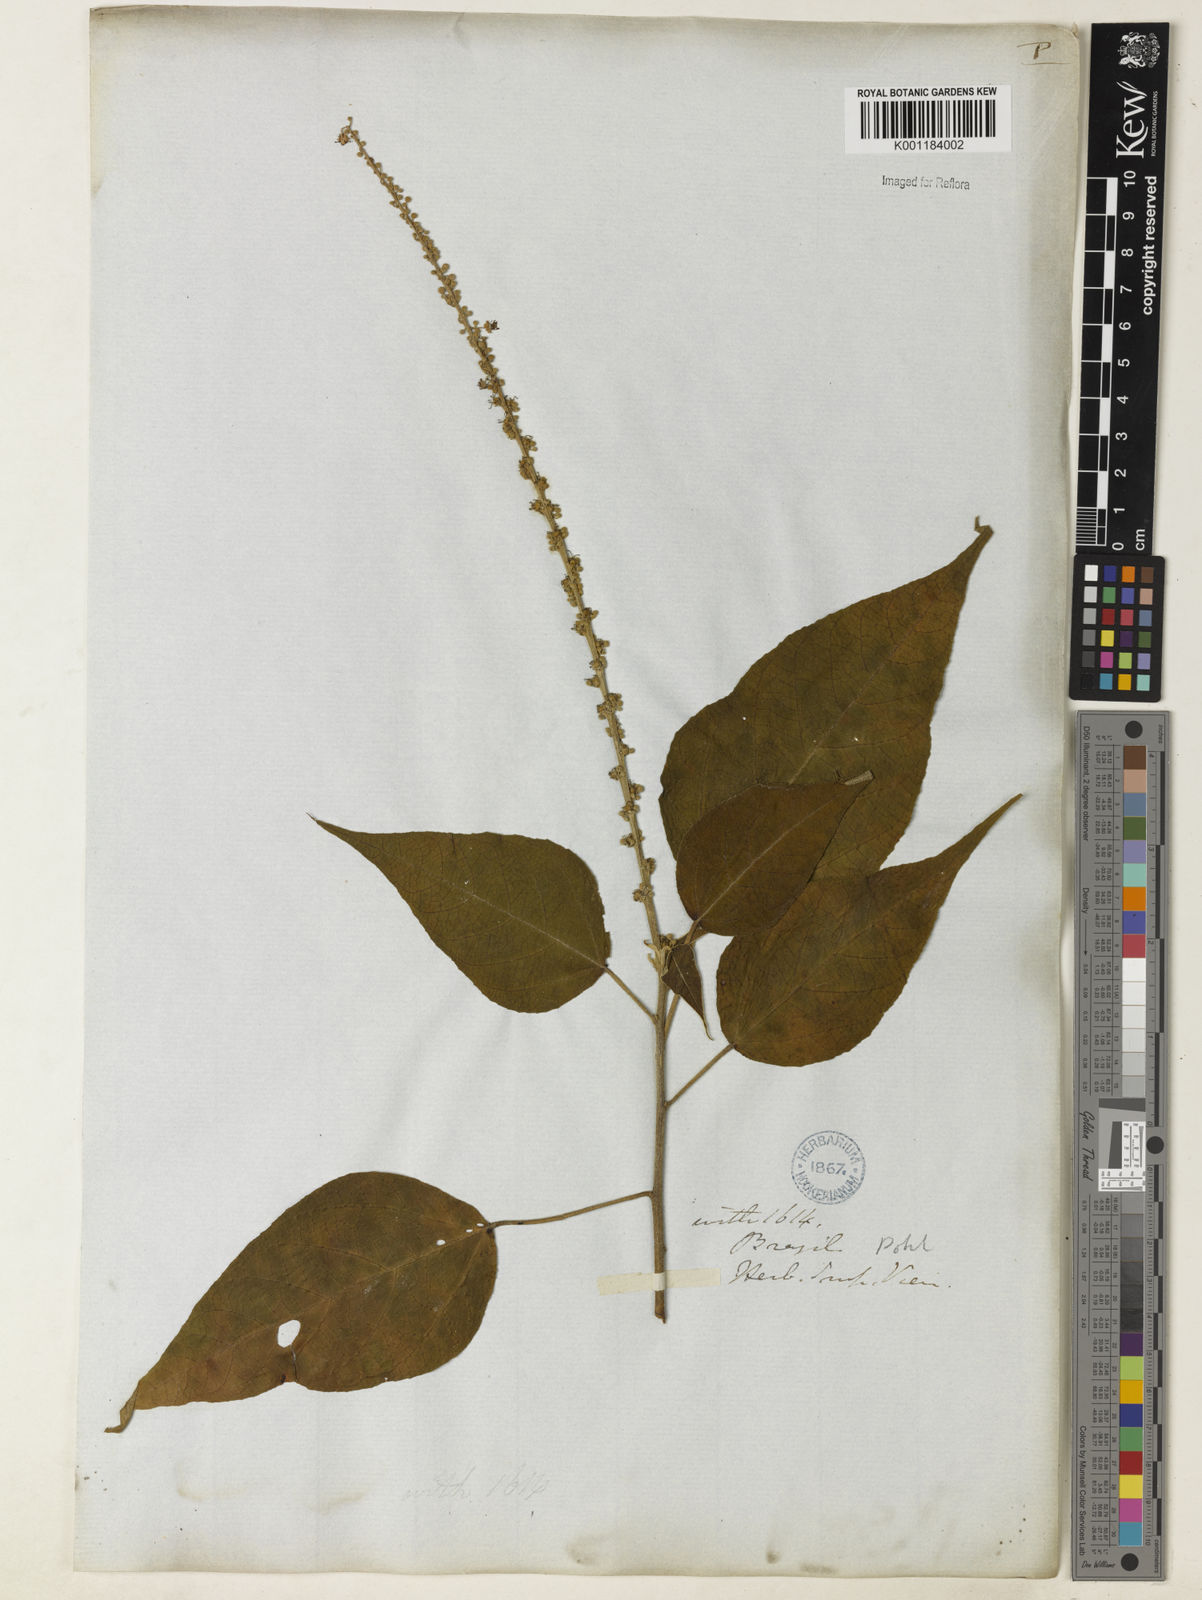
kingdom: Plantae
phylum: Tracheophyta
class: Magnoliopsida
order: Malpighiales
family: Euphorbiaceae
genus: Croton
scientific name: Croton gracilipes
